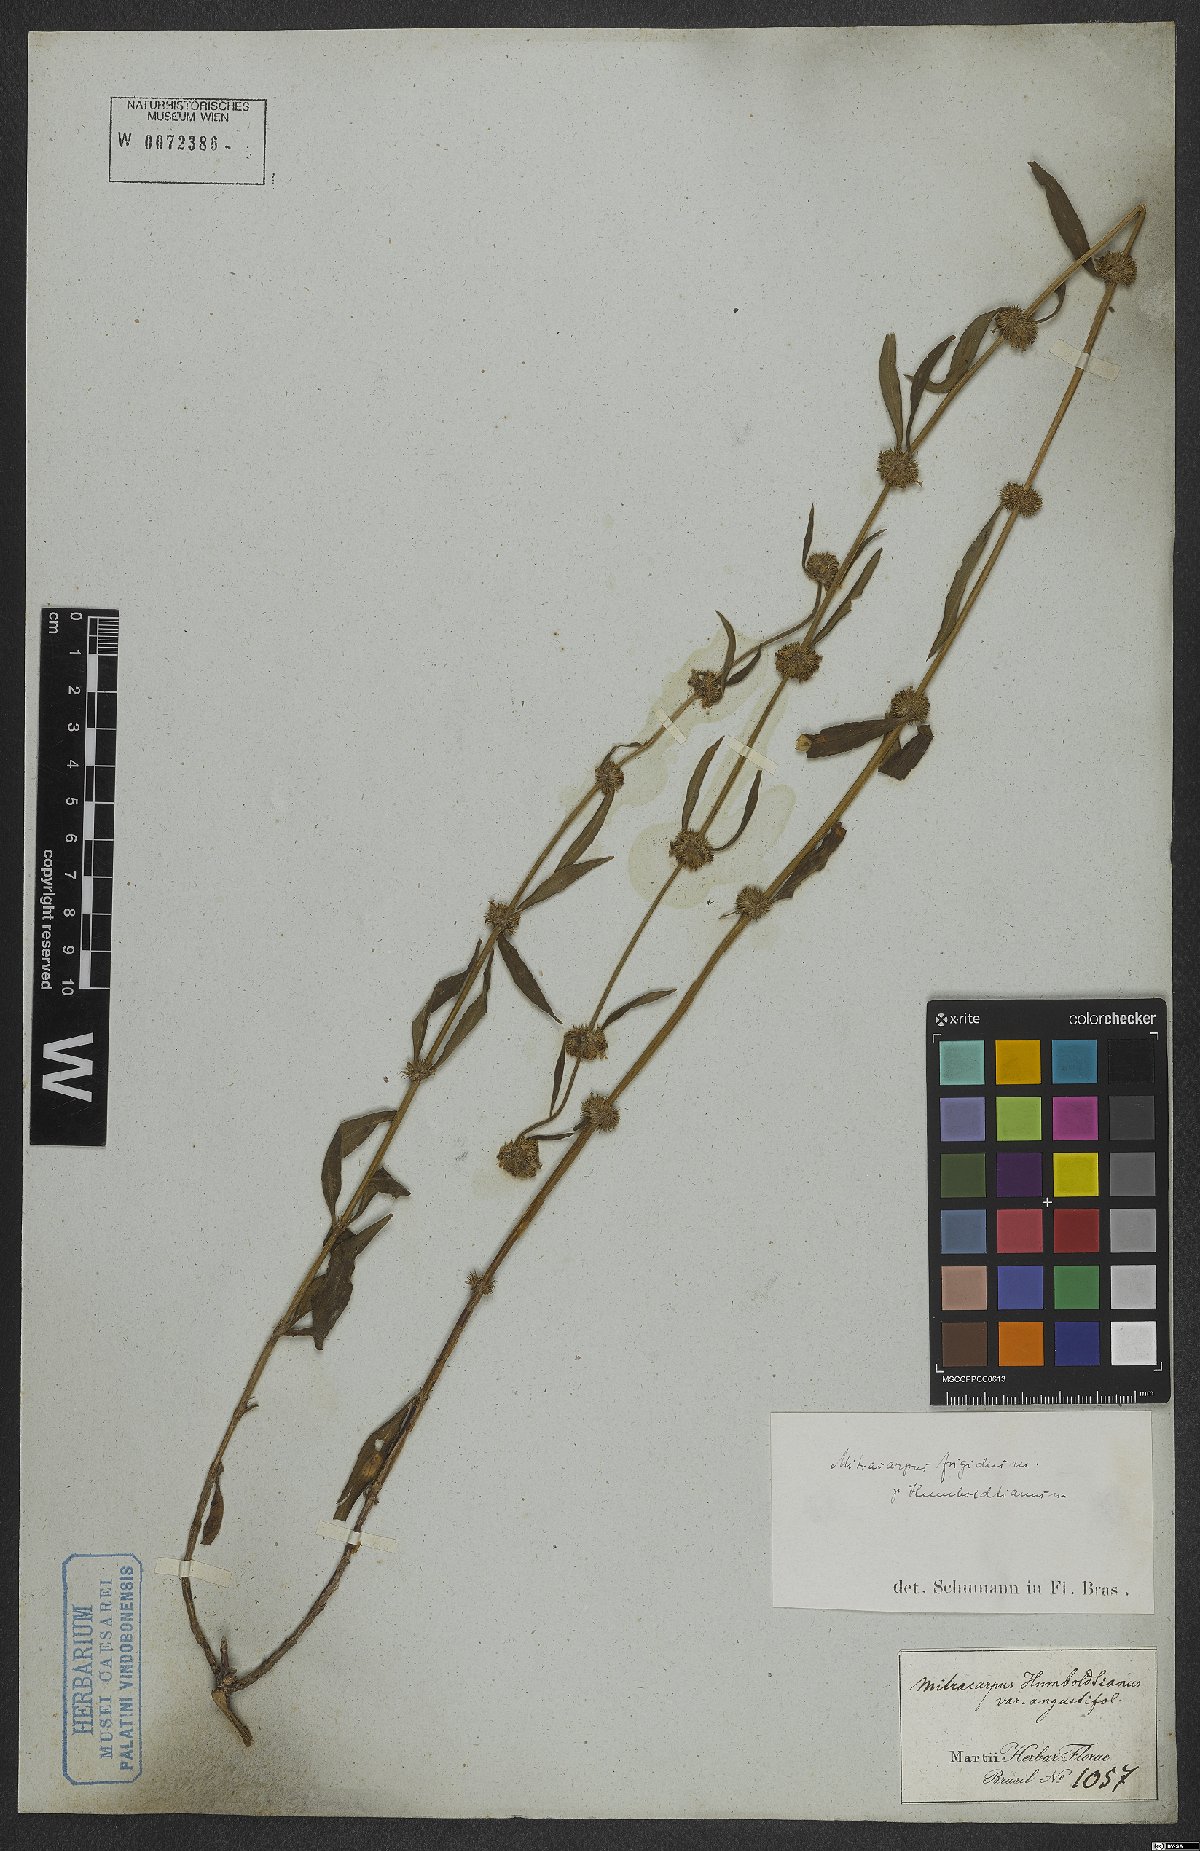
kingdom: Plantae
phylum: Tracheophyta
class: Magnoliopsida
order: Gentianales
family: Rubiaceae
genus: Mitracarpus
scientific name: Mitracarpus frigidus
